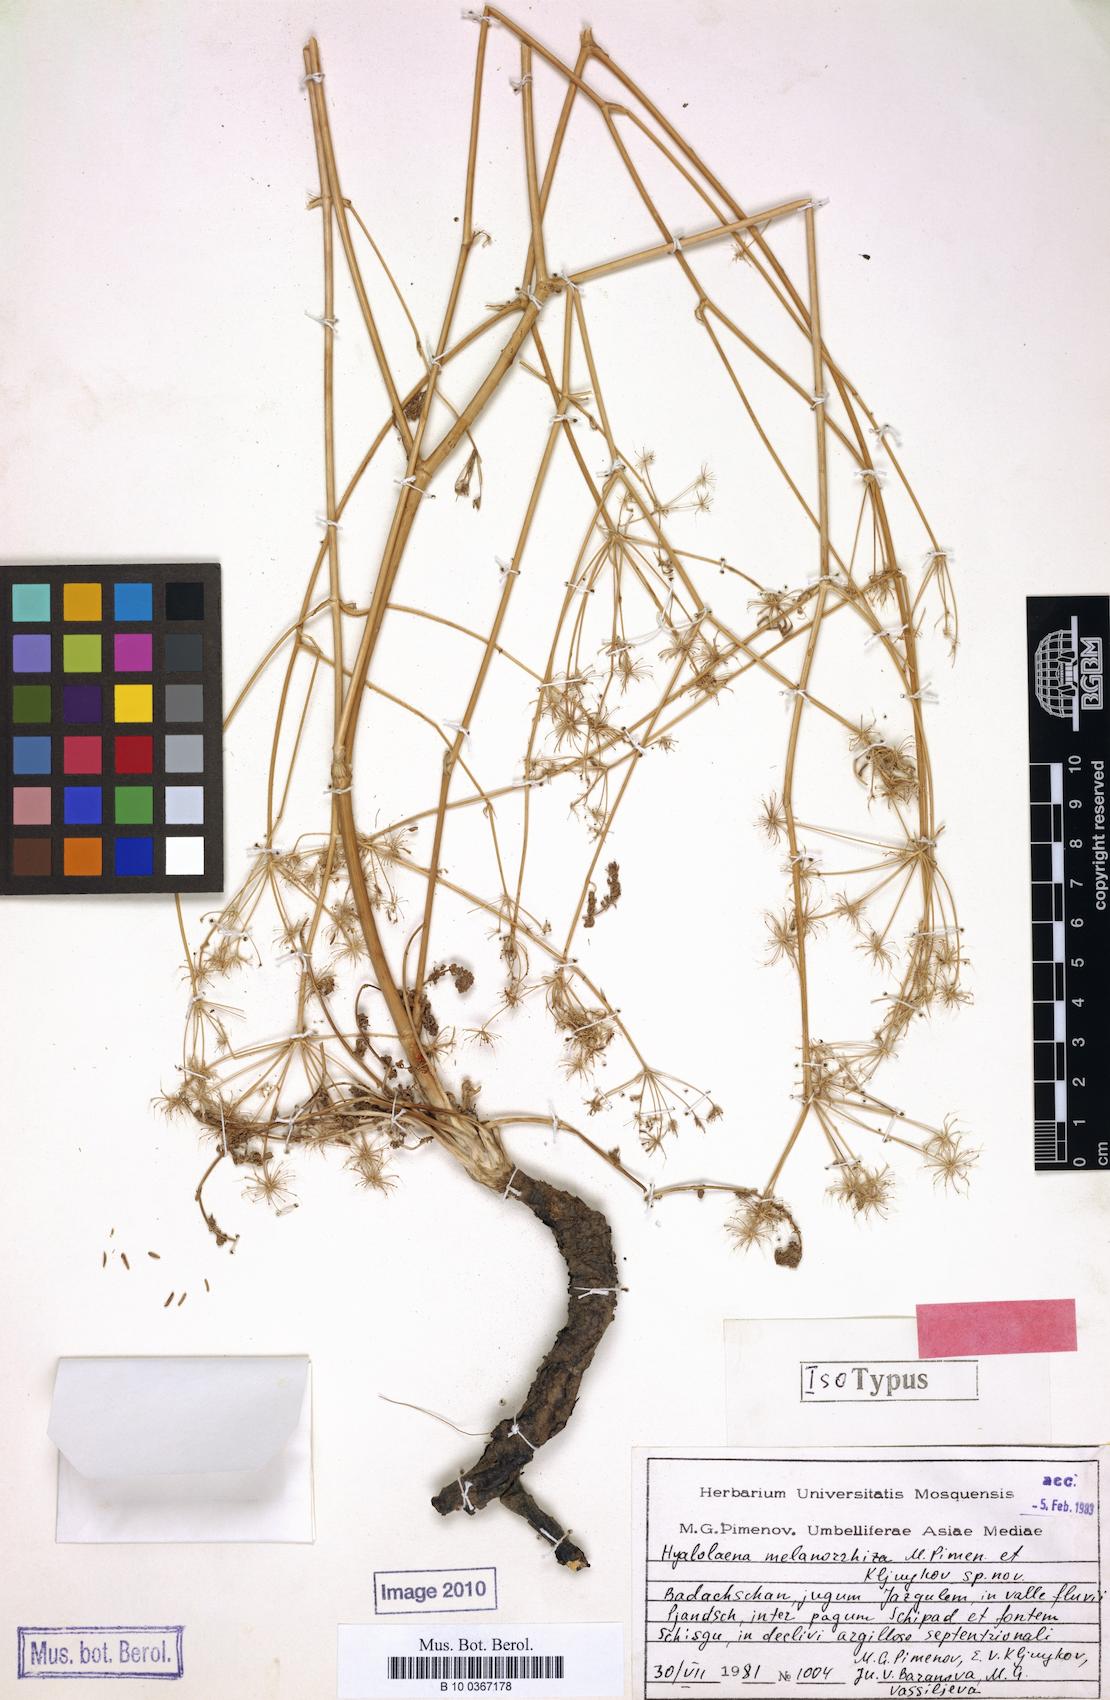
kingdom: Plantae
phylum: Tracheophyta
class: Magnoliopsida
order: Apiales
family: Apiaceae
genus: Hyalolaena
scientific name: Hyalolaena melanorrhiza
